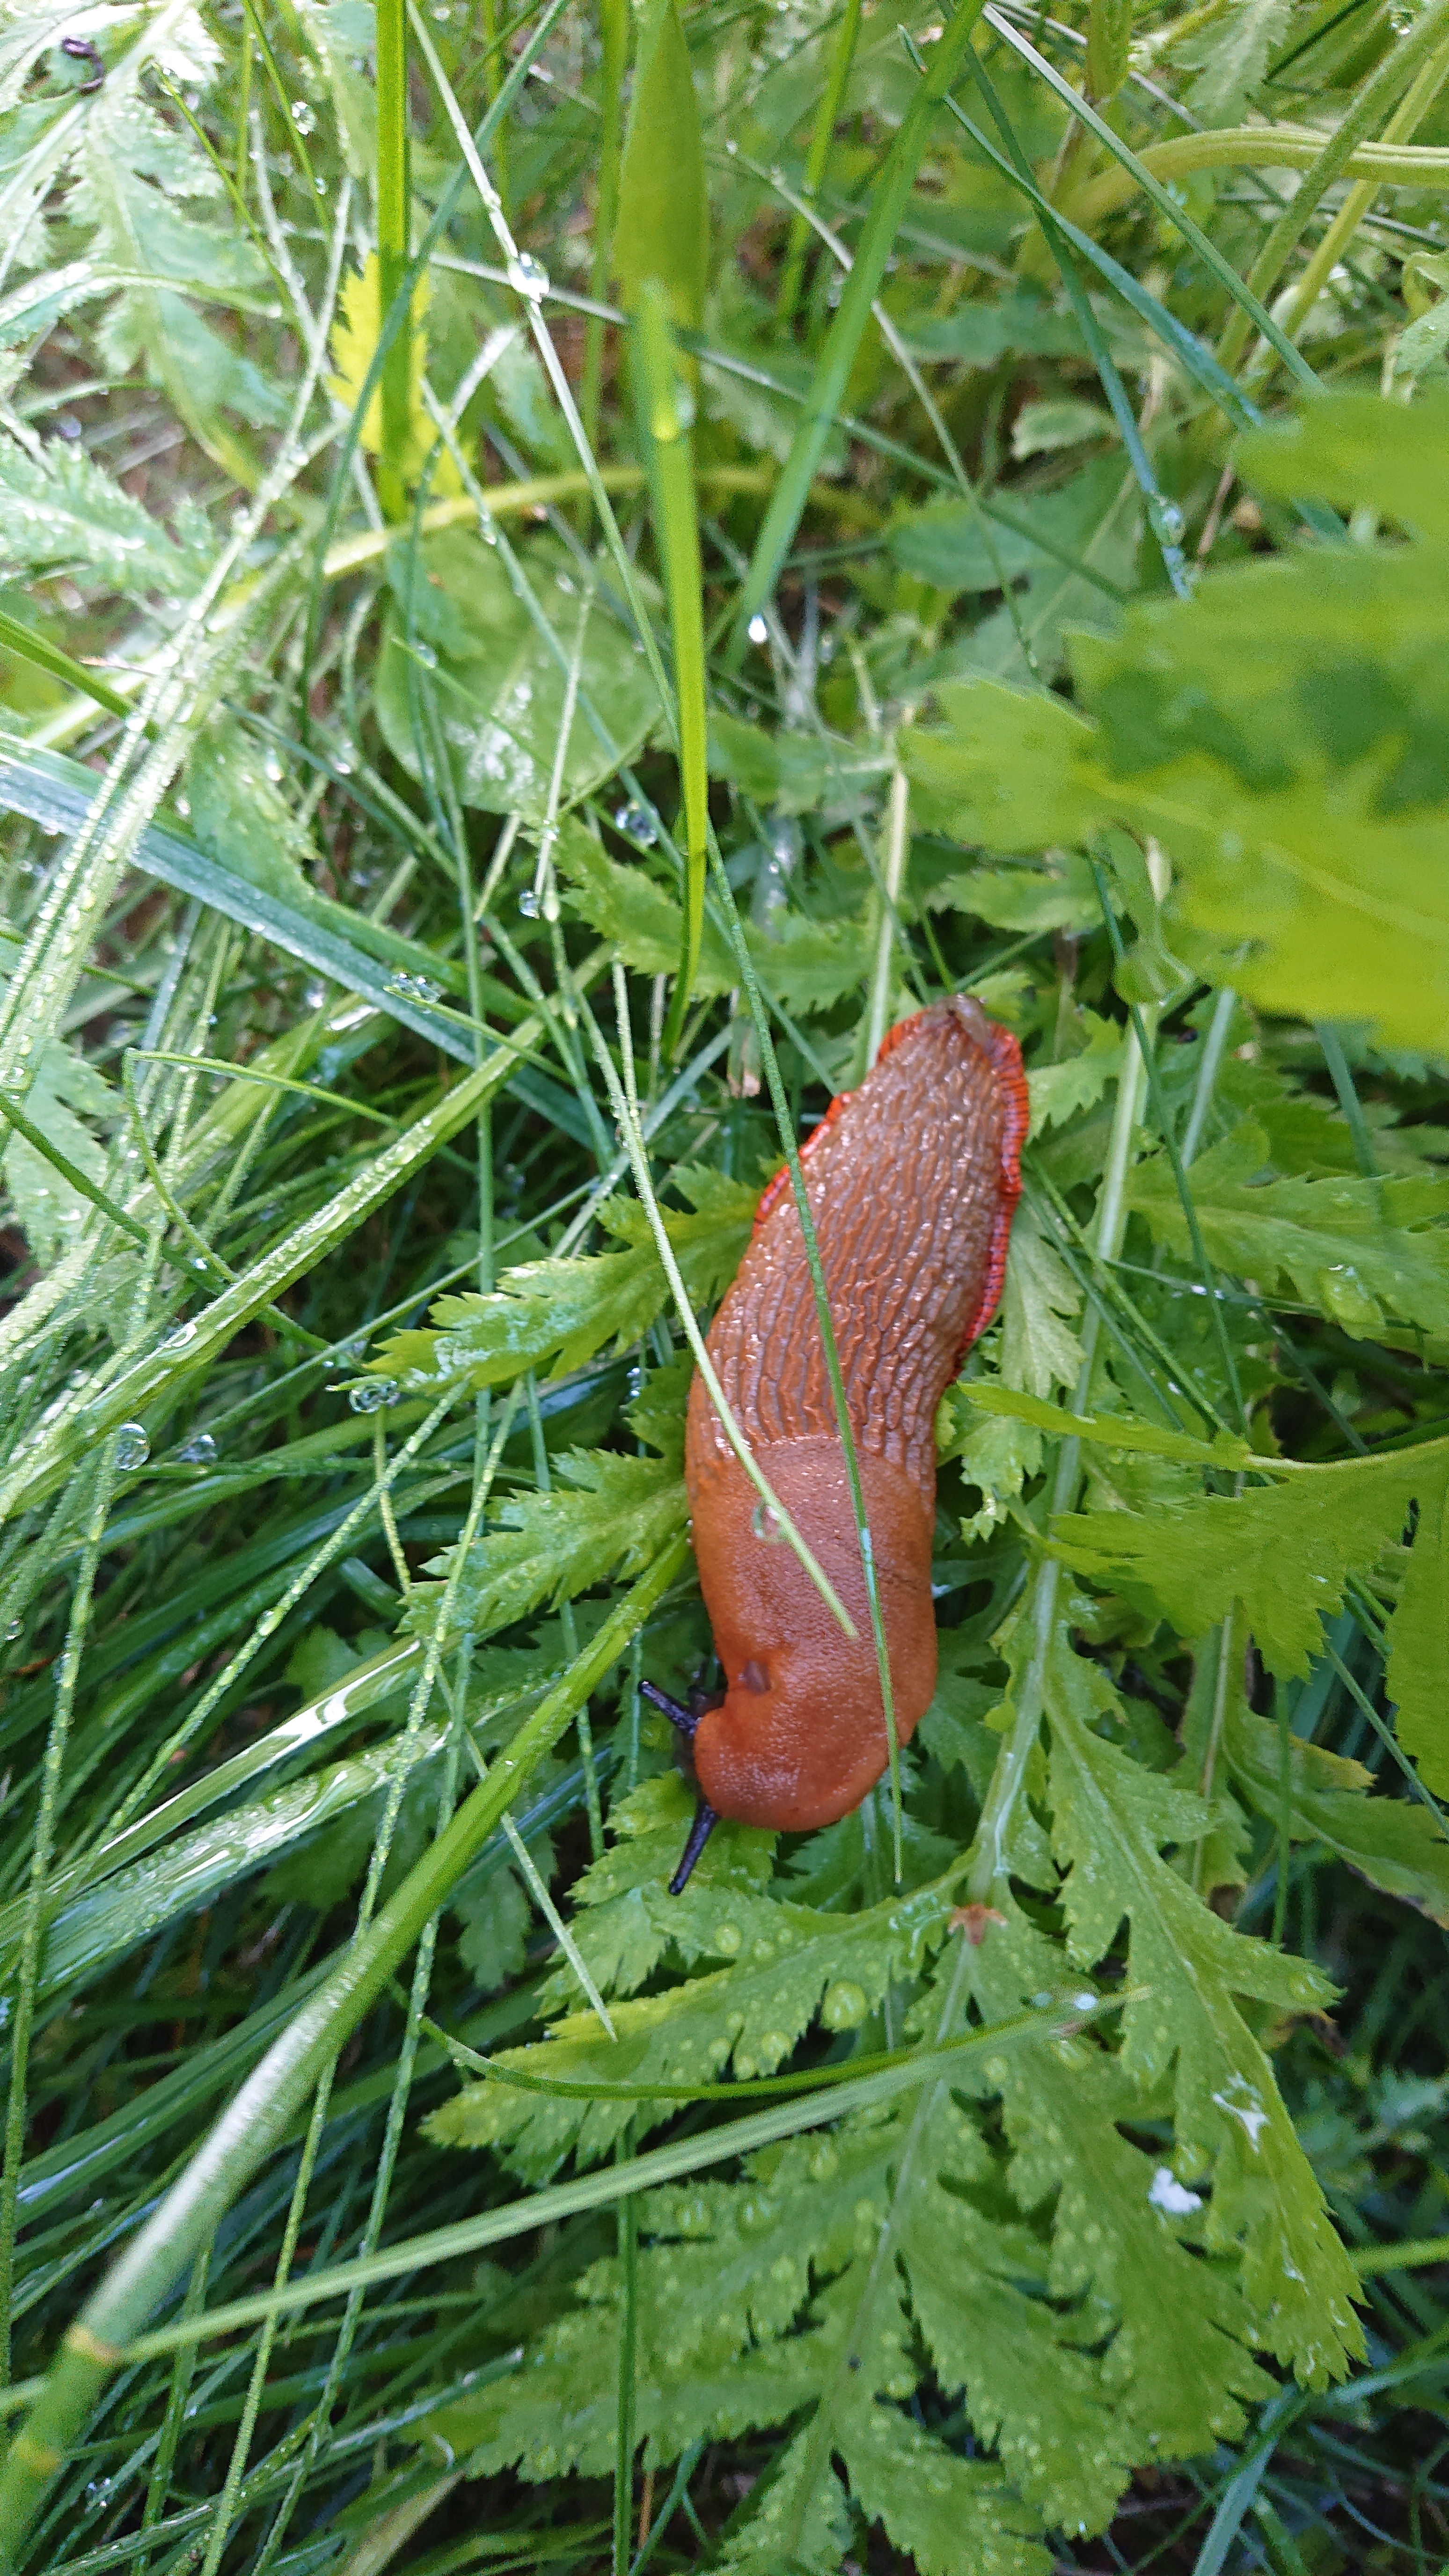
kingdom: Animalia
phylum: Mollusca
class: Gastropoda
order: Stylommatophora
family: Arionidae
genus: Arion
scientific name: Arion vulgaris
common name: Lusitanian slug
